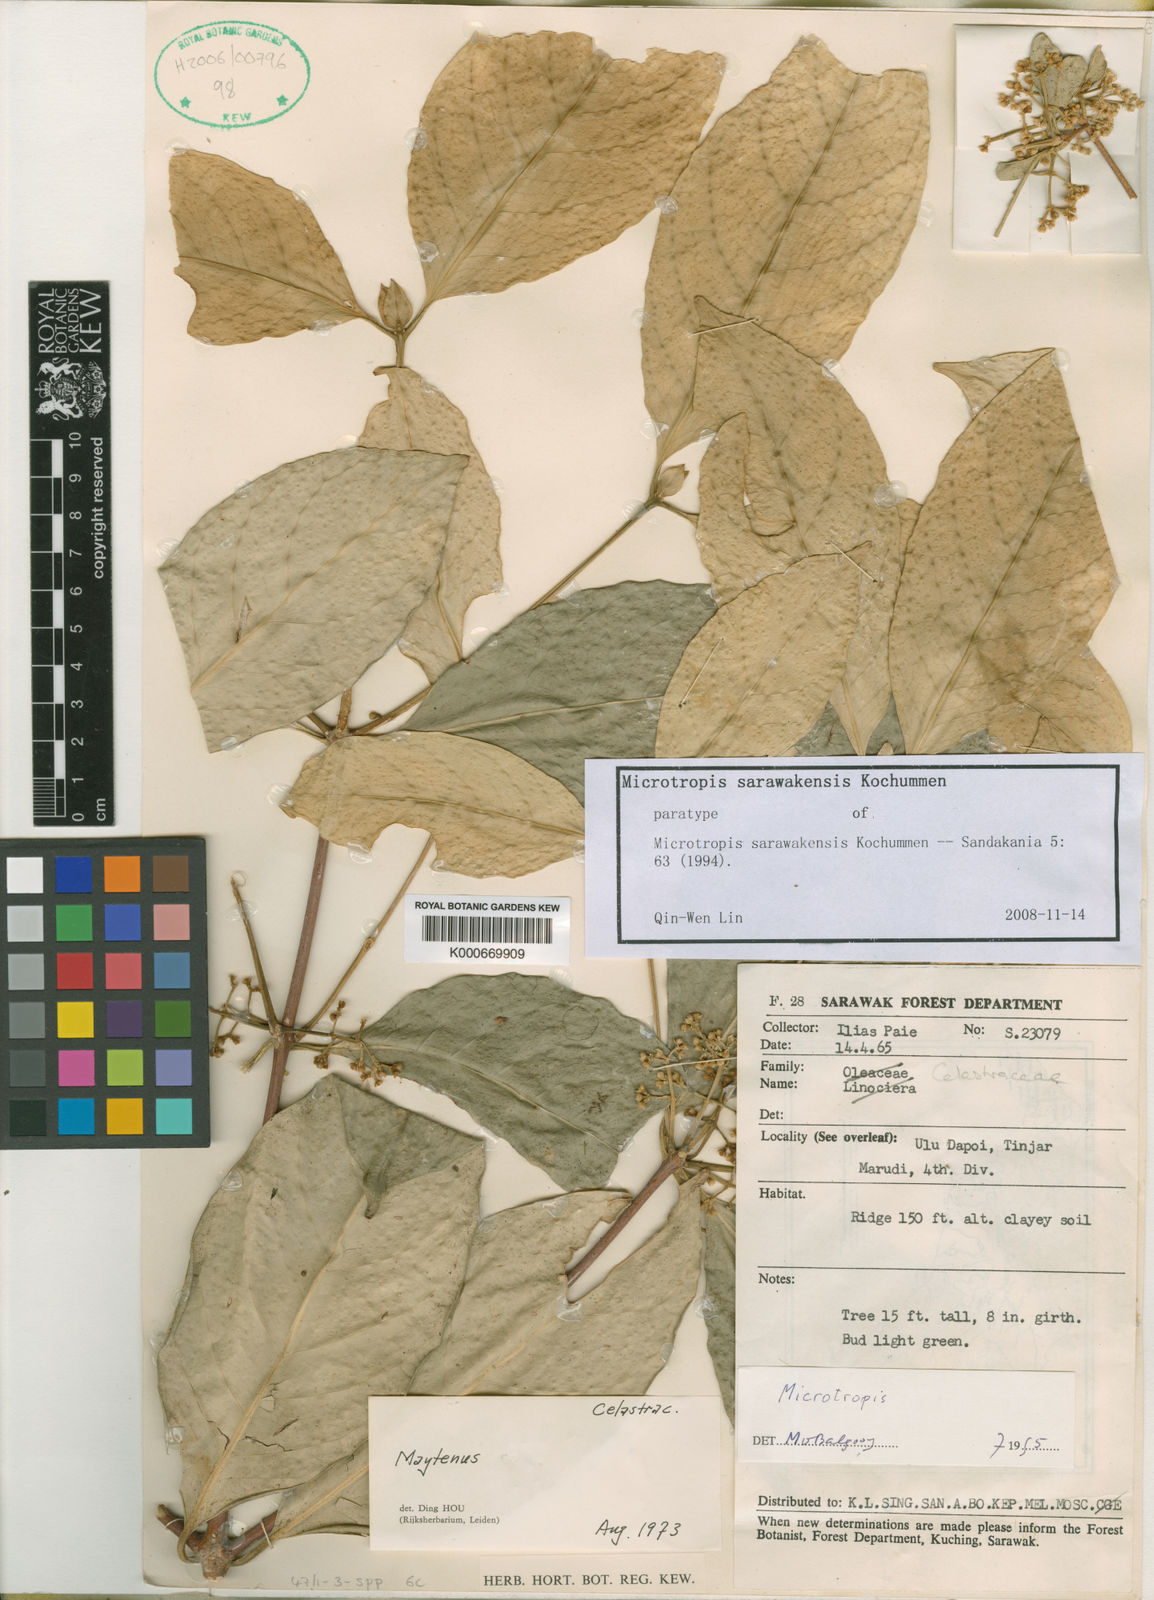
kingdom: Plantae
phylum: Tracheophyta
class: Magnoliopsida
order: Celastrales
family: Celastraceae
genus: Microtropis
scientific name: Microtropis sarawakensis
